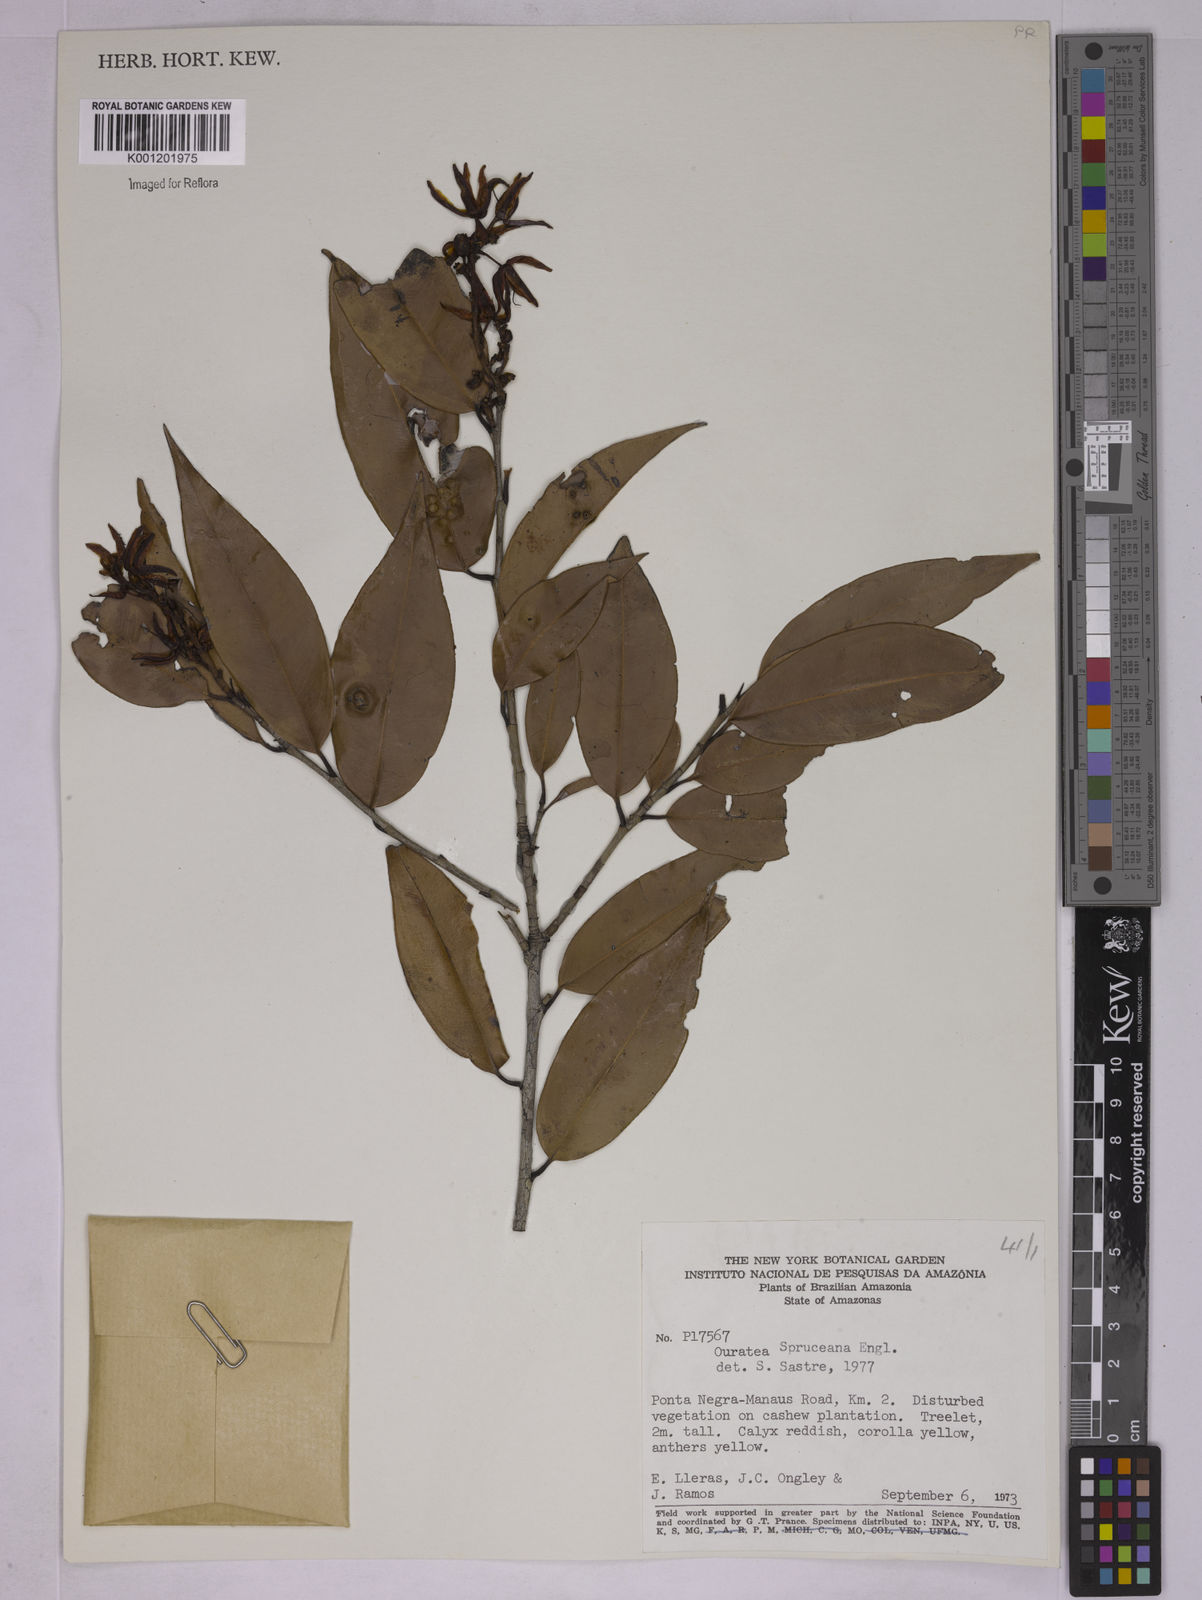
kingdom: Plantae
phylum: Tracheophyta
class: Magnoliopsida
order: Malpighiales
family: Ochnaceae
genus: Ouratea
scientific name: Ouratea spruceana
